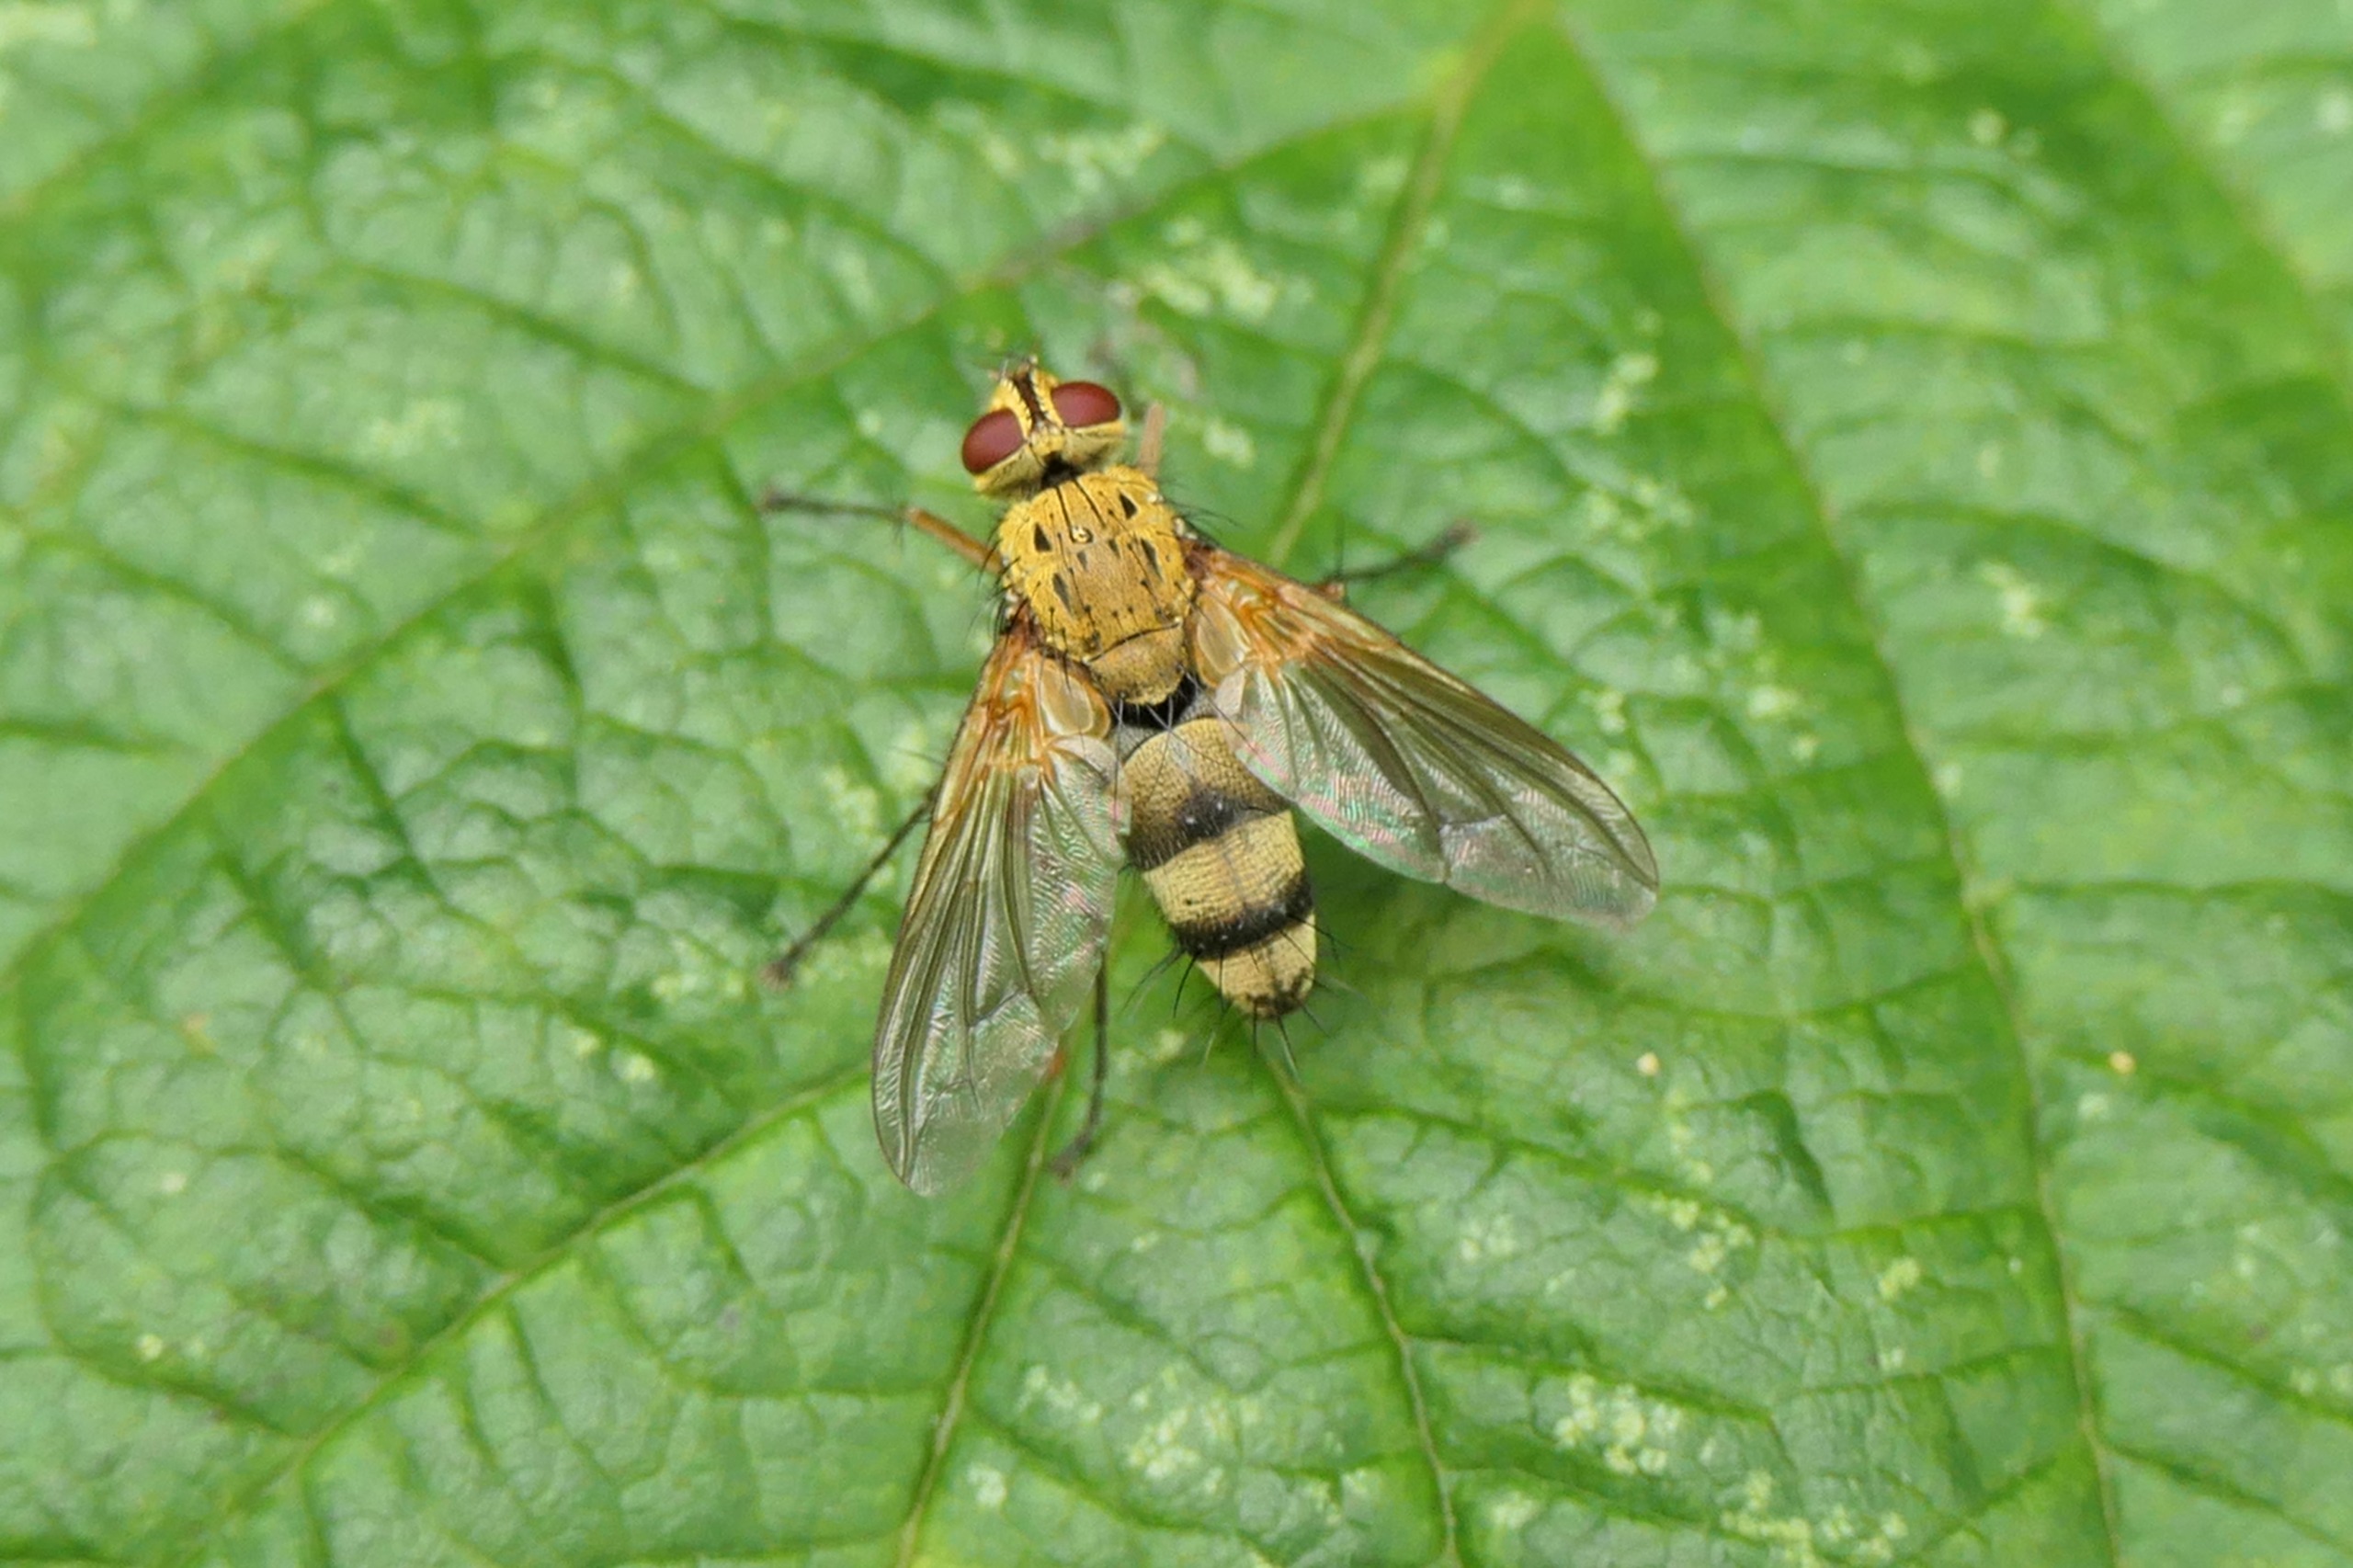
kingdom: Animalia
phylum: Arthropoda
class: Insecta
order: Diptera
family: Tachinidae
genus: Dexiosoma
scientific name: Dexiosoma caninum
